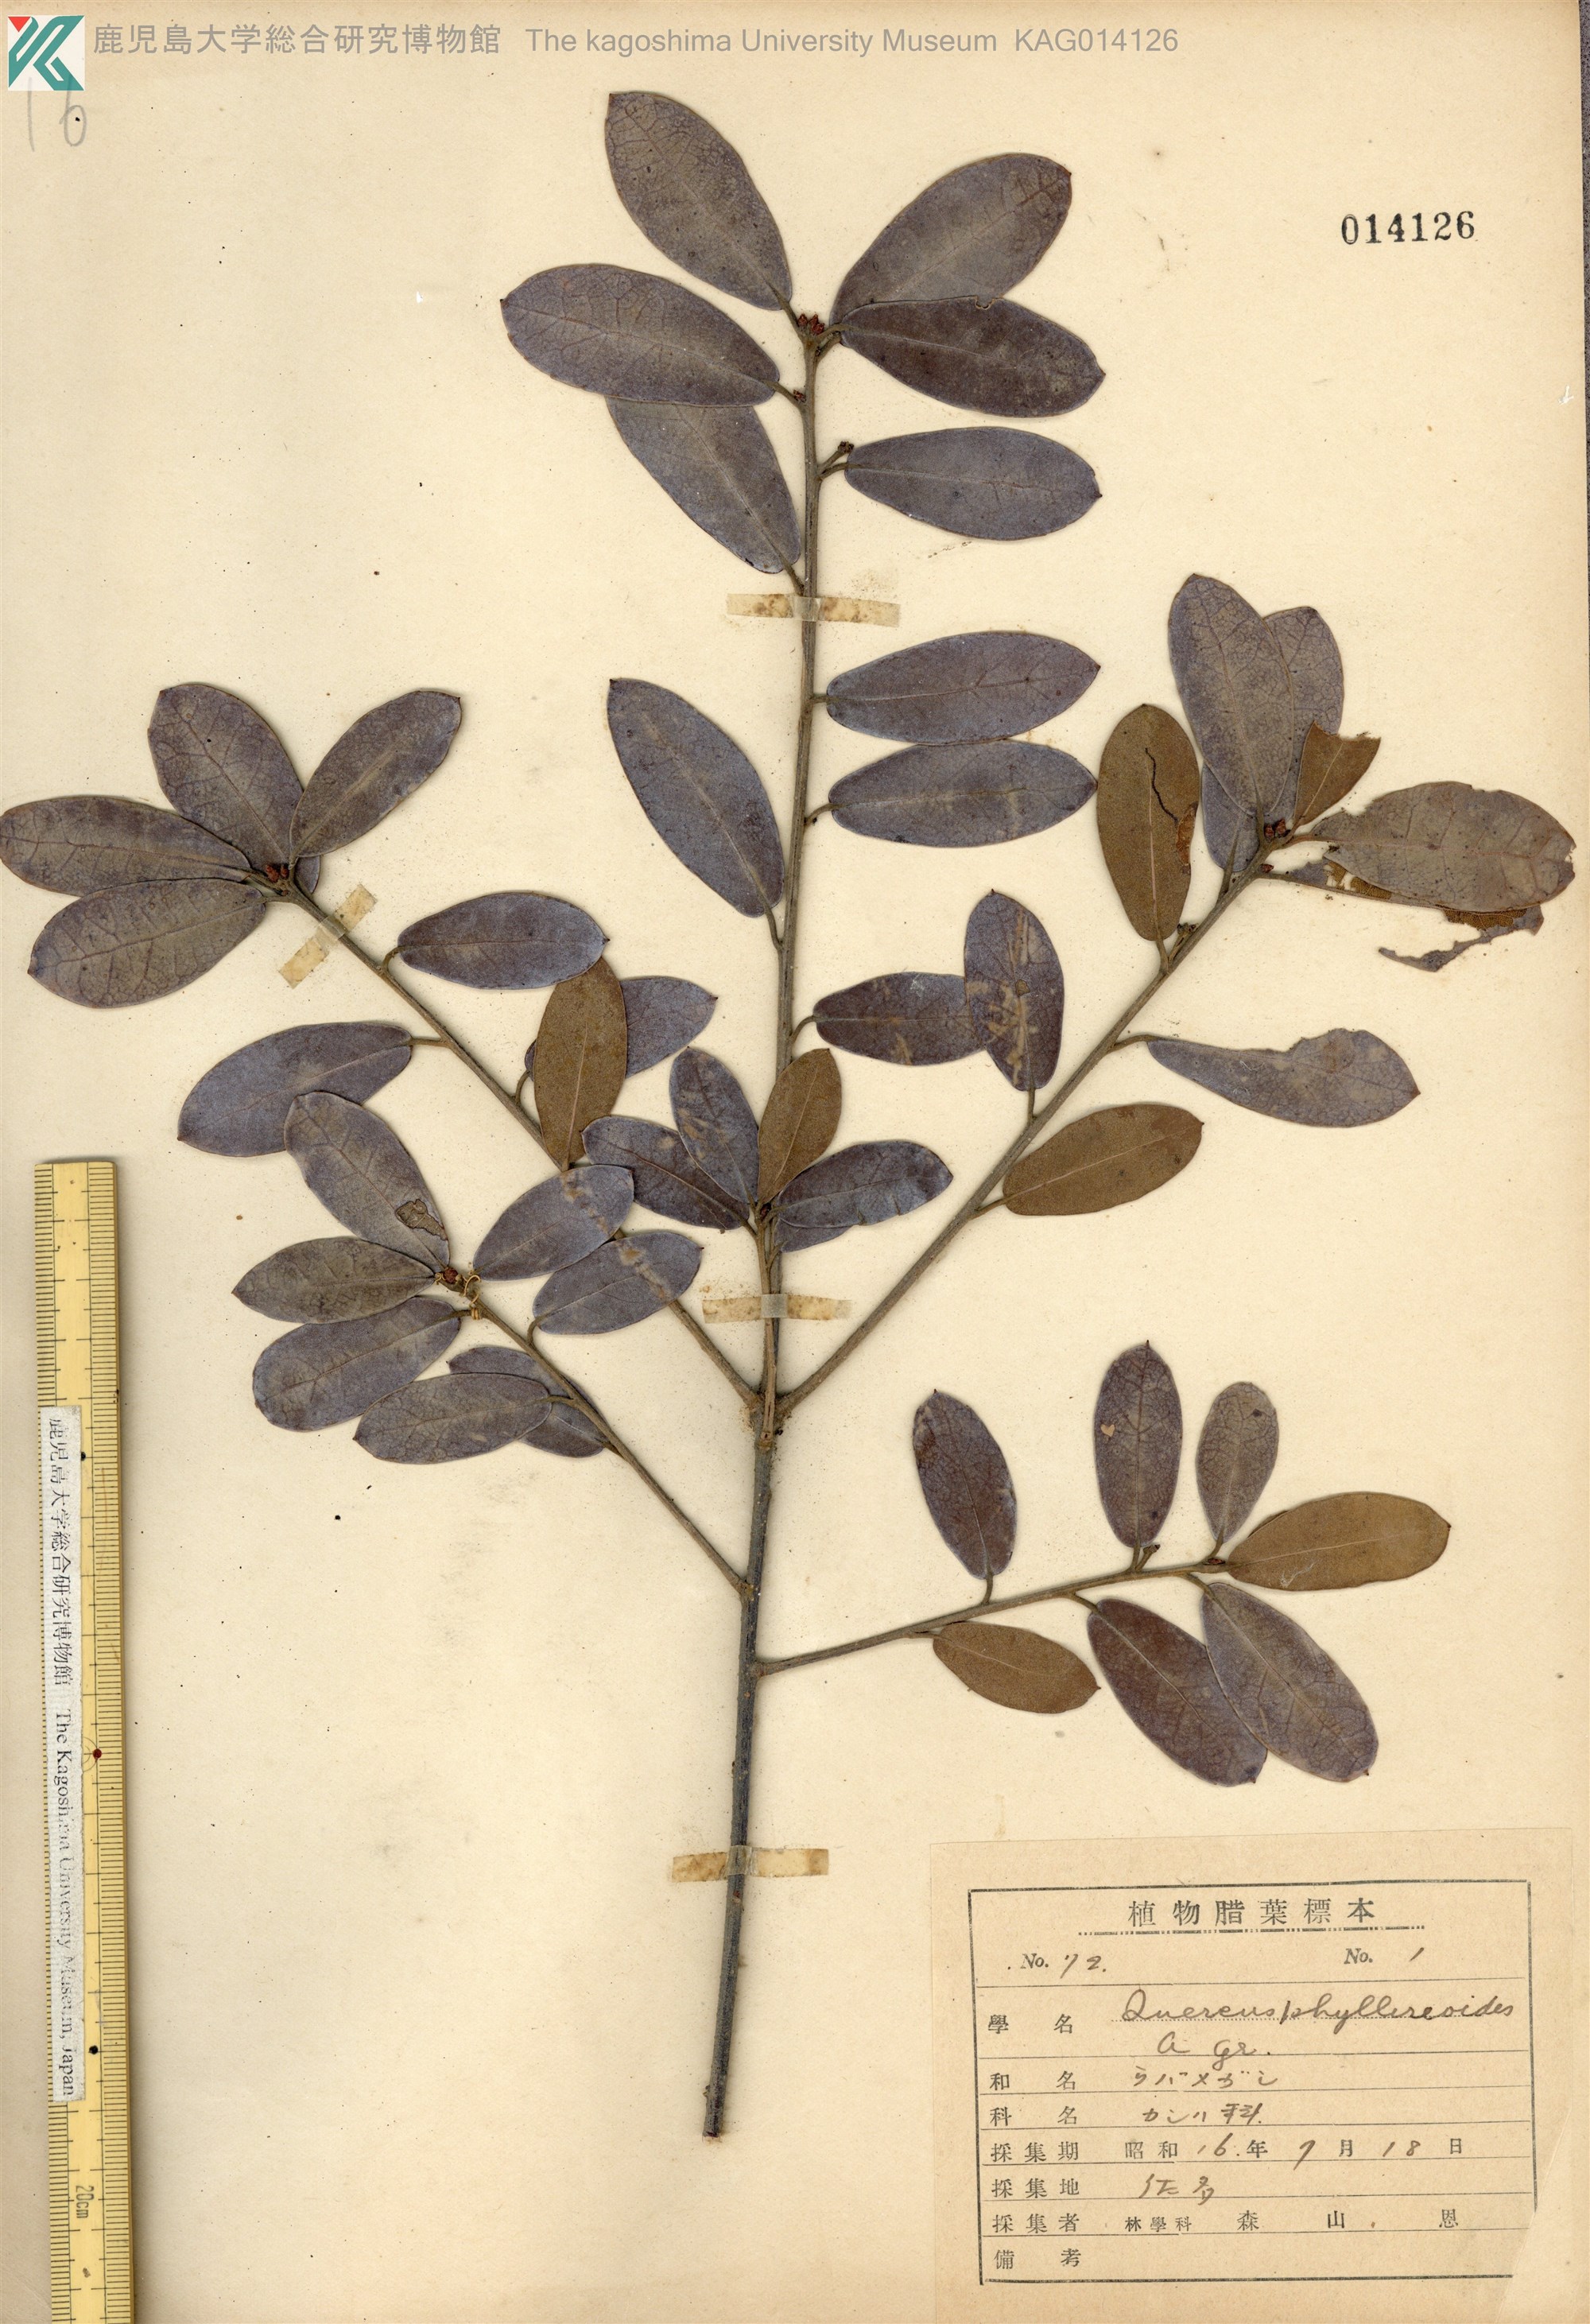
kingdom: Plantae
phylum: Tracheophyta
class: Magnoliopsida
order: Fagales
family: Fagaceae
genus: Quercus
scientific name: Quercus phillyraeoides
